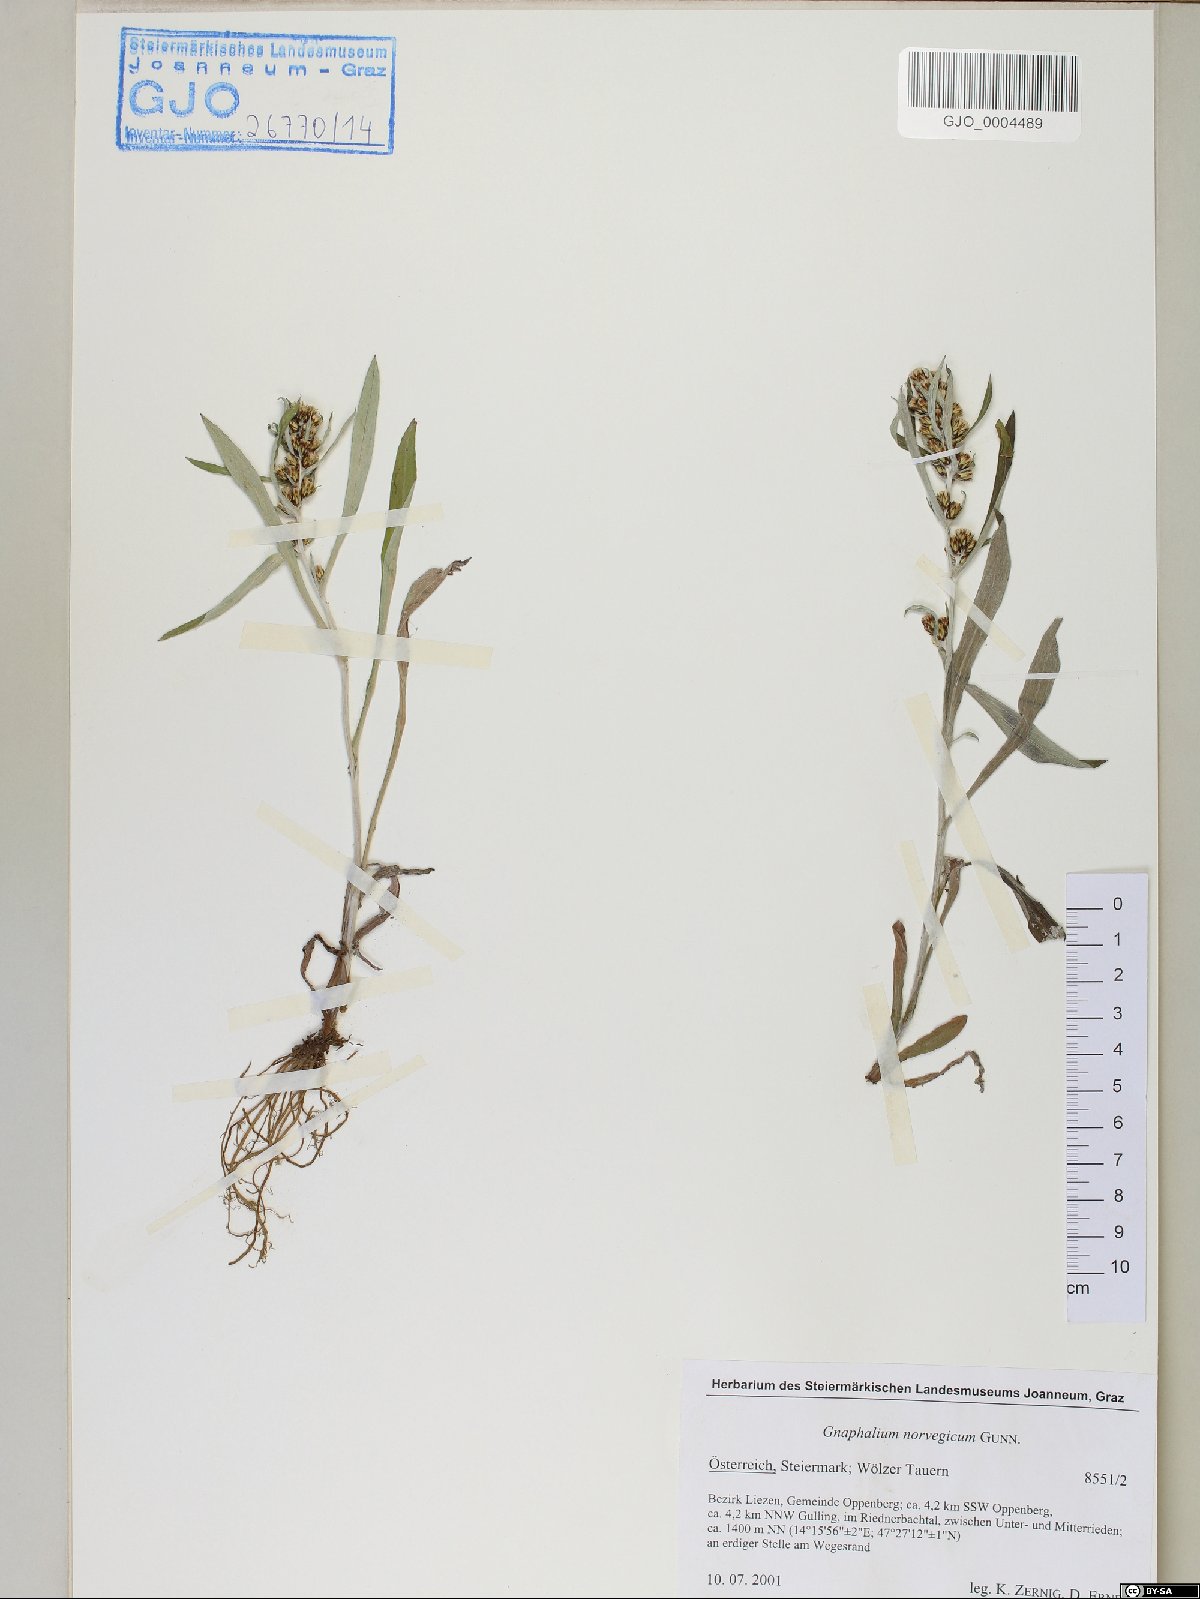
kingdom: Plantae
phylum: Tracheophyta
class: Magnoliopsida
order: Asterales
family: Asteraceae
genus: Omalotheca
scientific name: Omalotheca norvegica
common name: Norwegian arctic-cudweed
